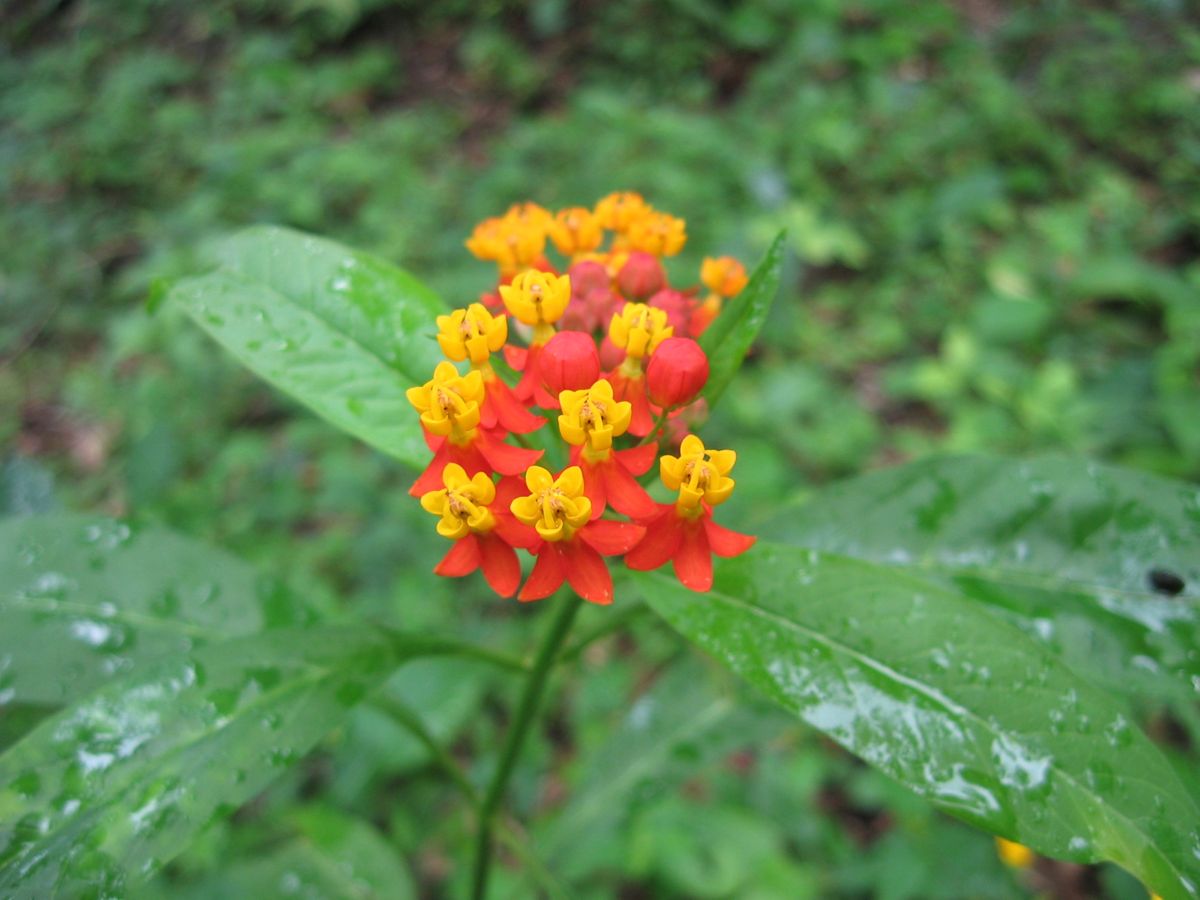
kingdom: Plantae
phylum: Tracheophyta
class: Magnoliopsida
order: Asterales
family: Asteraceae
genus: Delilia
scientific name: Delilia biflora
